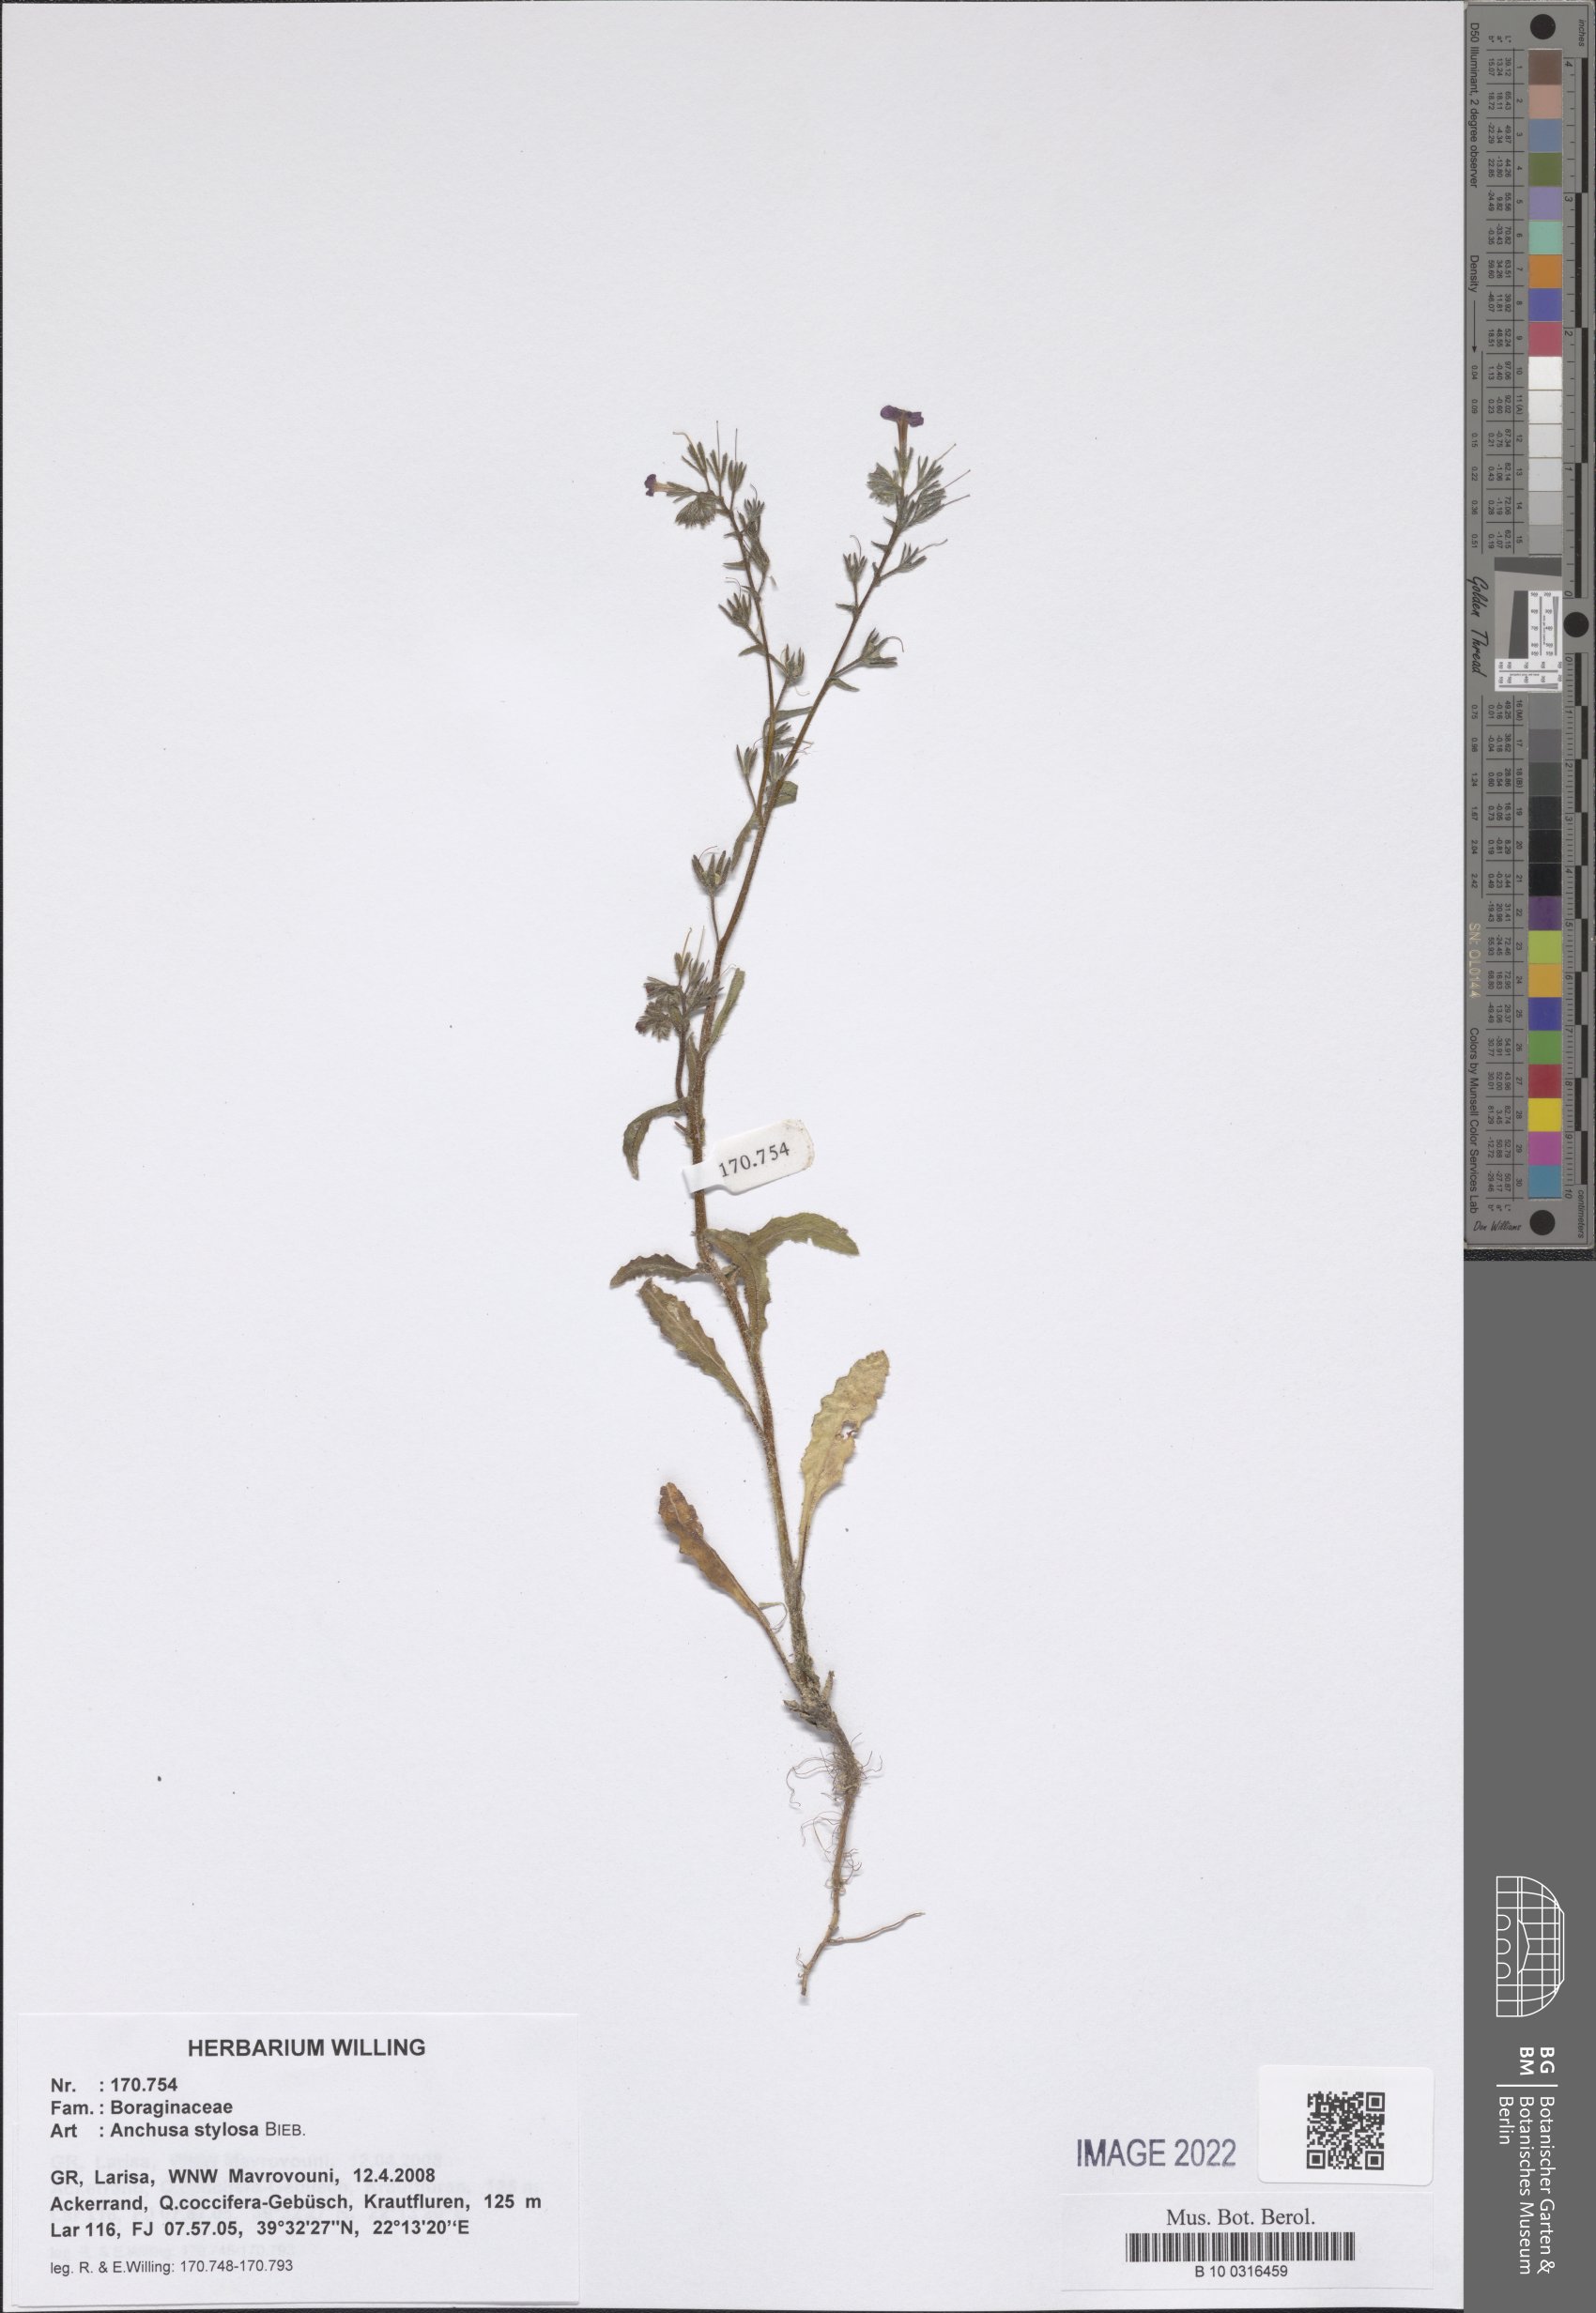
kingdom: Plantae
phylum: Tracheophyta
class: Magnoliopsida
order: Boraginales
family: Boraginaceae
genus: Anchusa
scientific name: Anchusa stylosa
